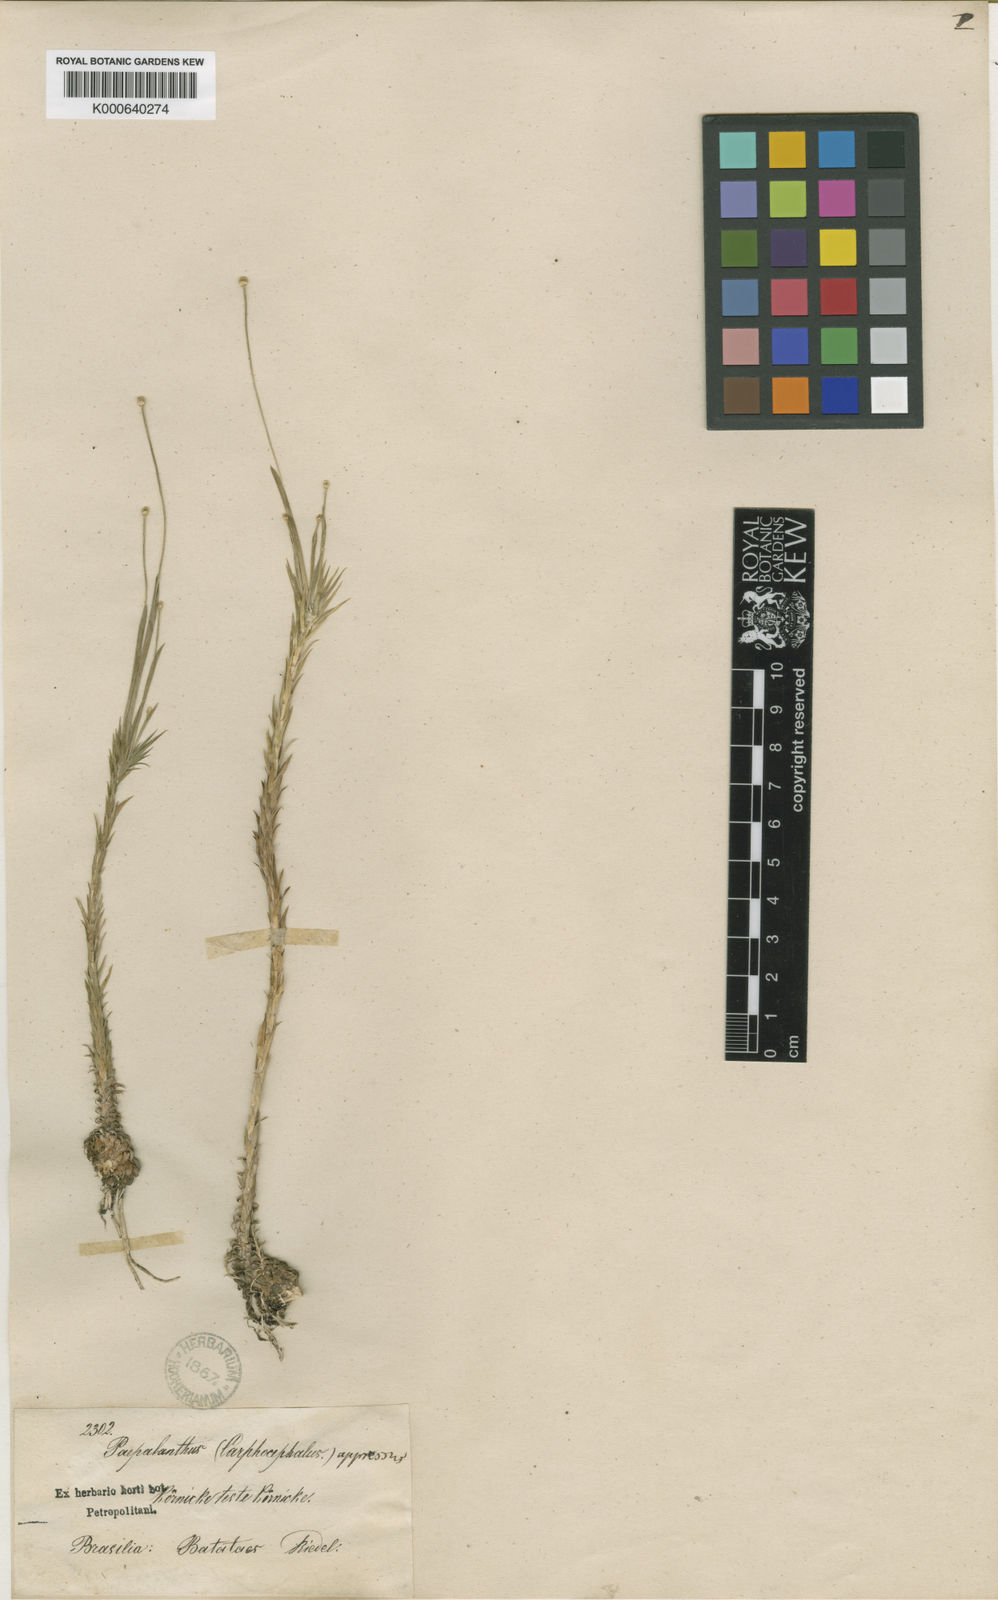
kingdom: Plantae
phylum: Tracheophyta
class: Liliopsida
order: Poales
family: Eriocaulaceae
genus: Syngonanthus
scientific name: Syngonanthus
